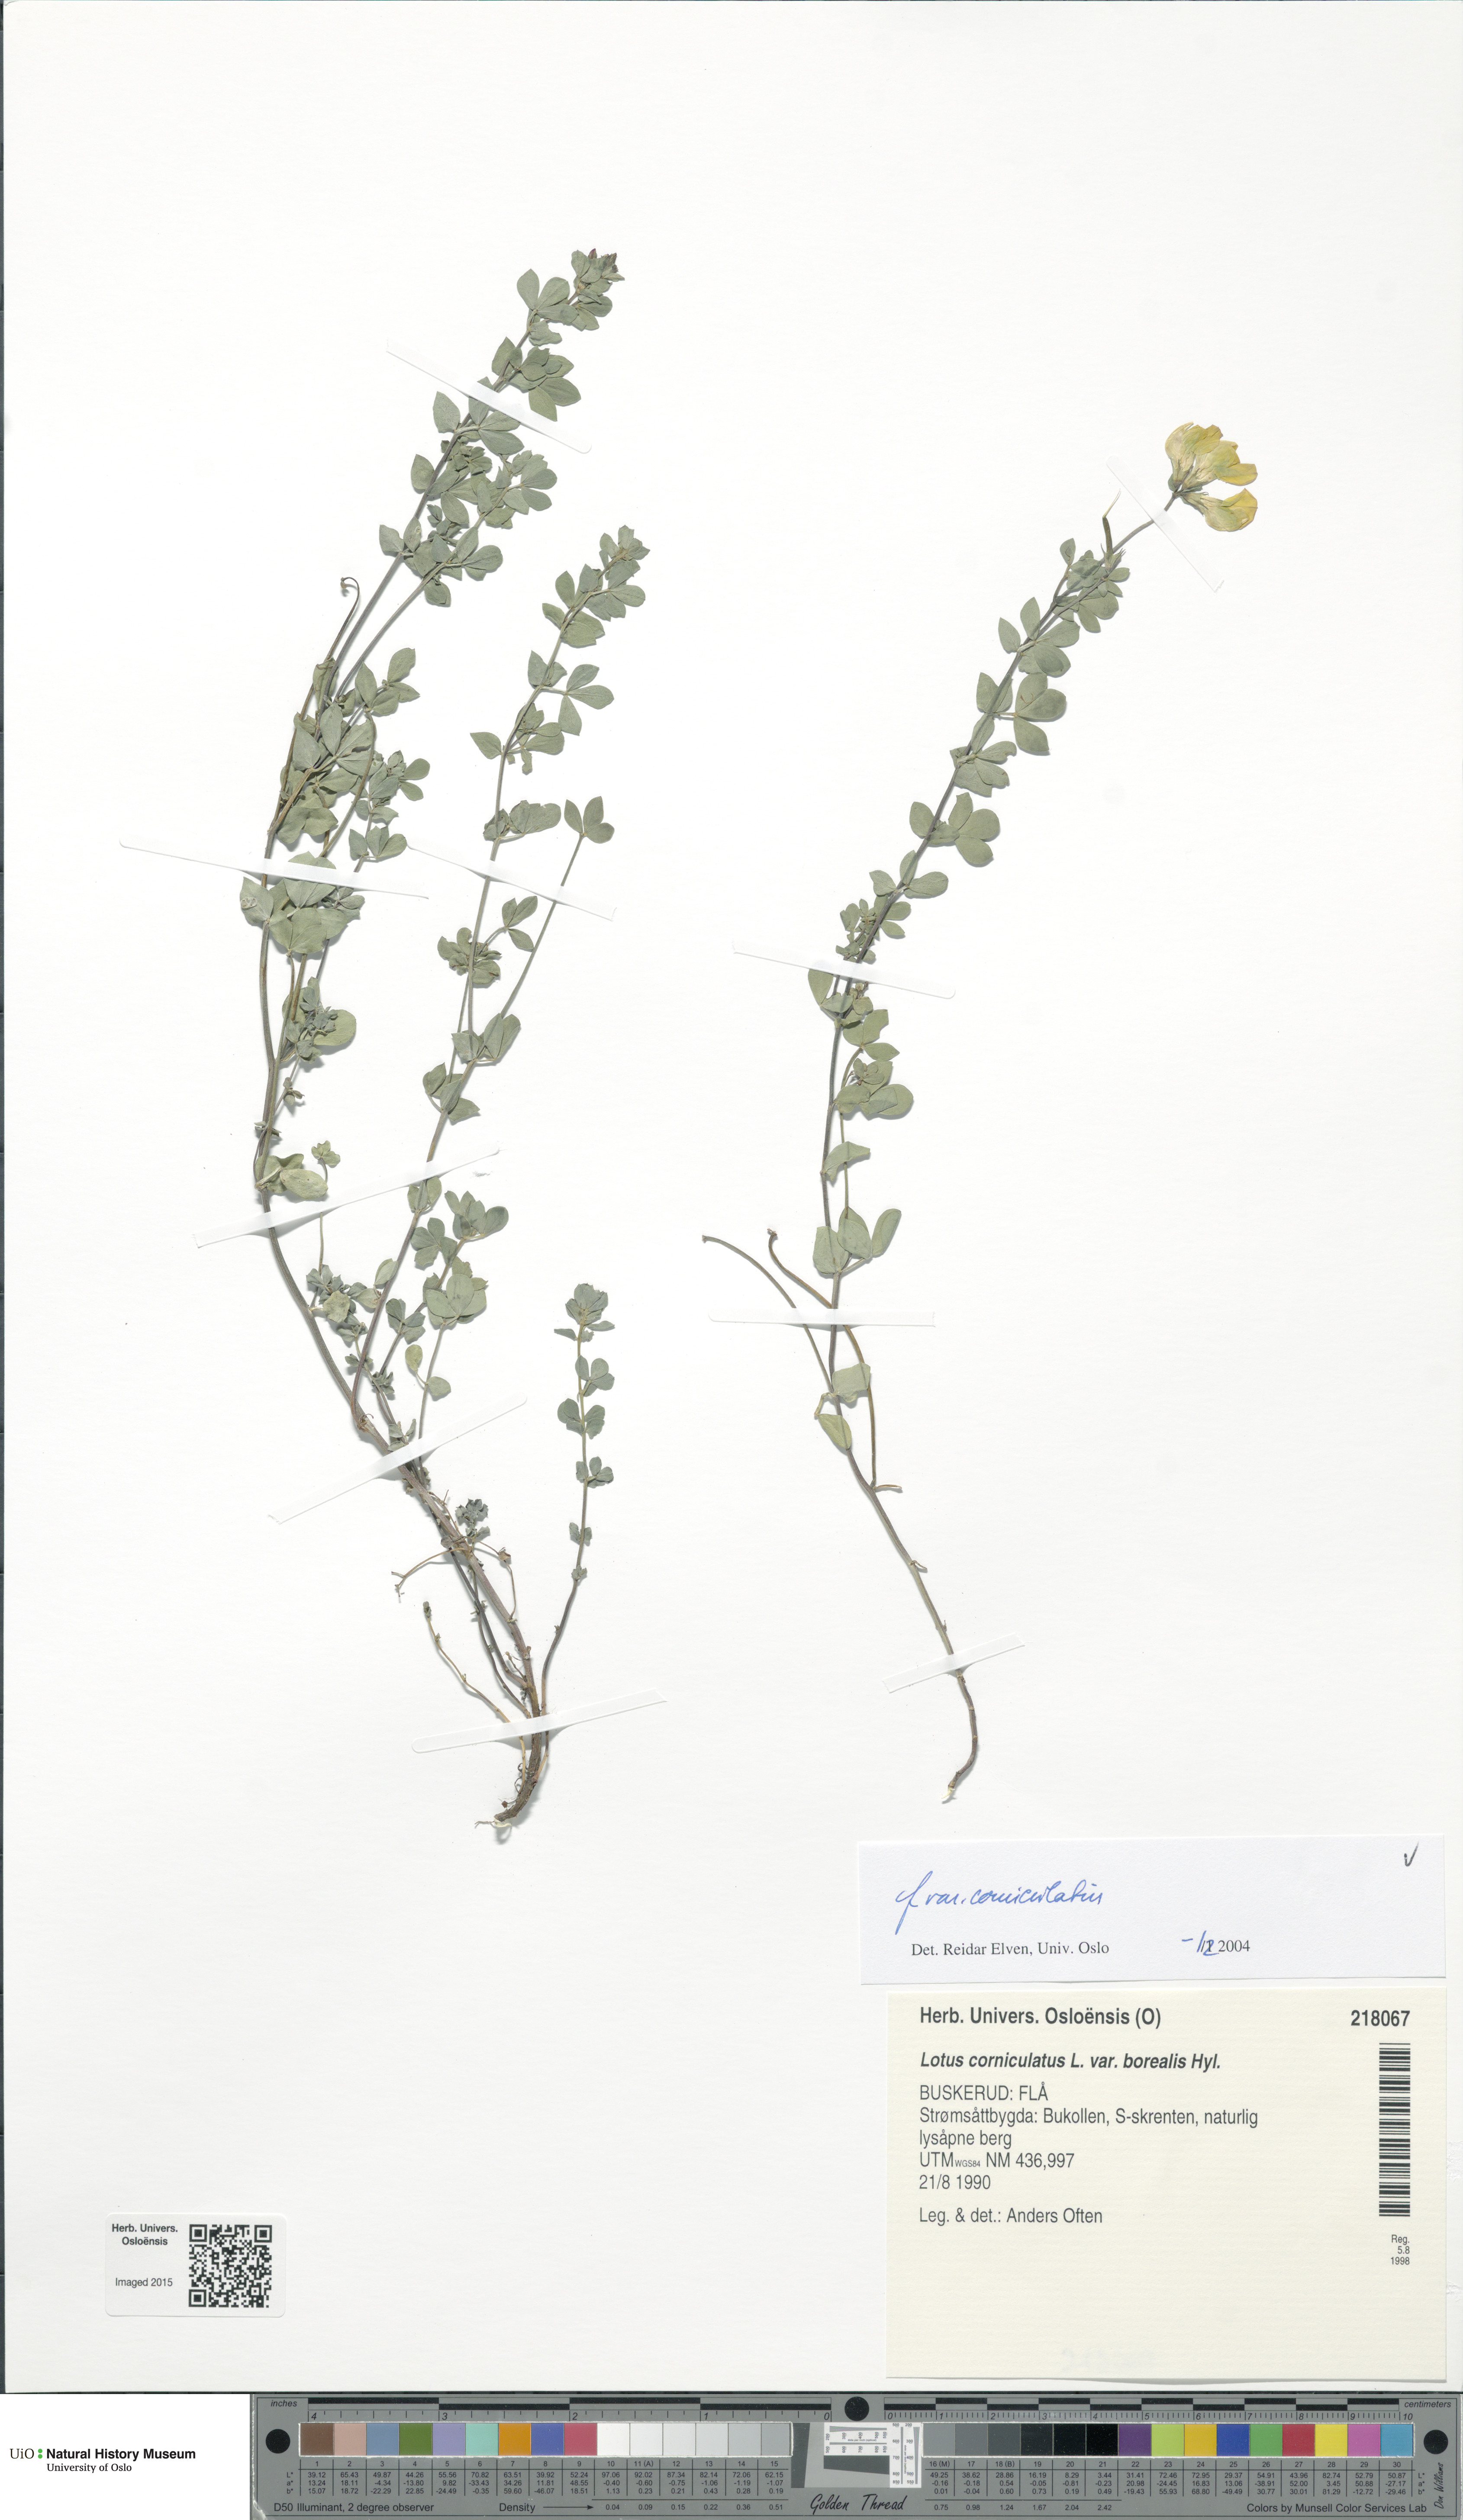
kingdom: Plantae
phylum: Tracheophyta
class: Magnoliopsida
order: Fabales
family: Fabaceae
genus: Lotus
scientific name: Lotus corniculatus
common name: Common bird's-foot-trefoil
